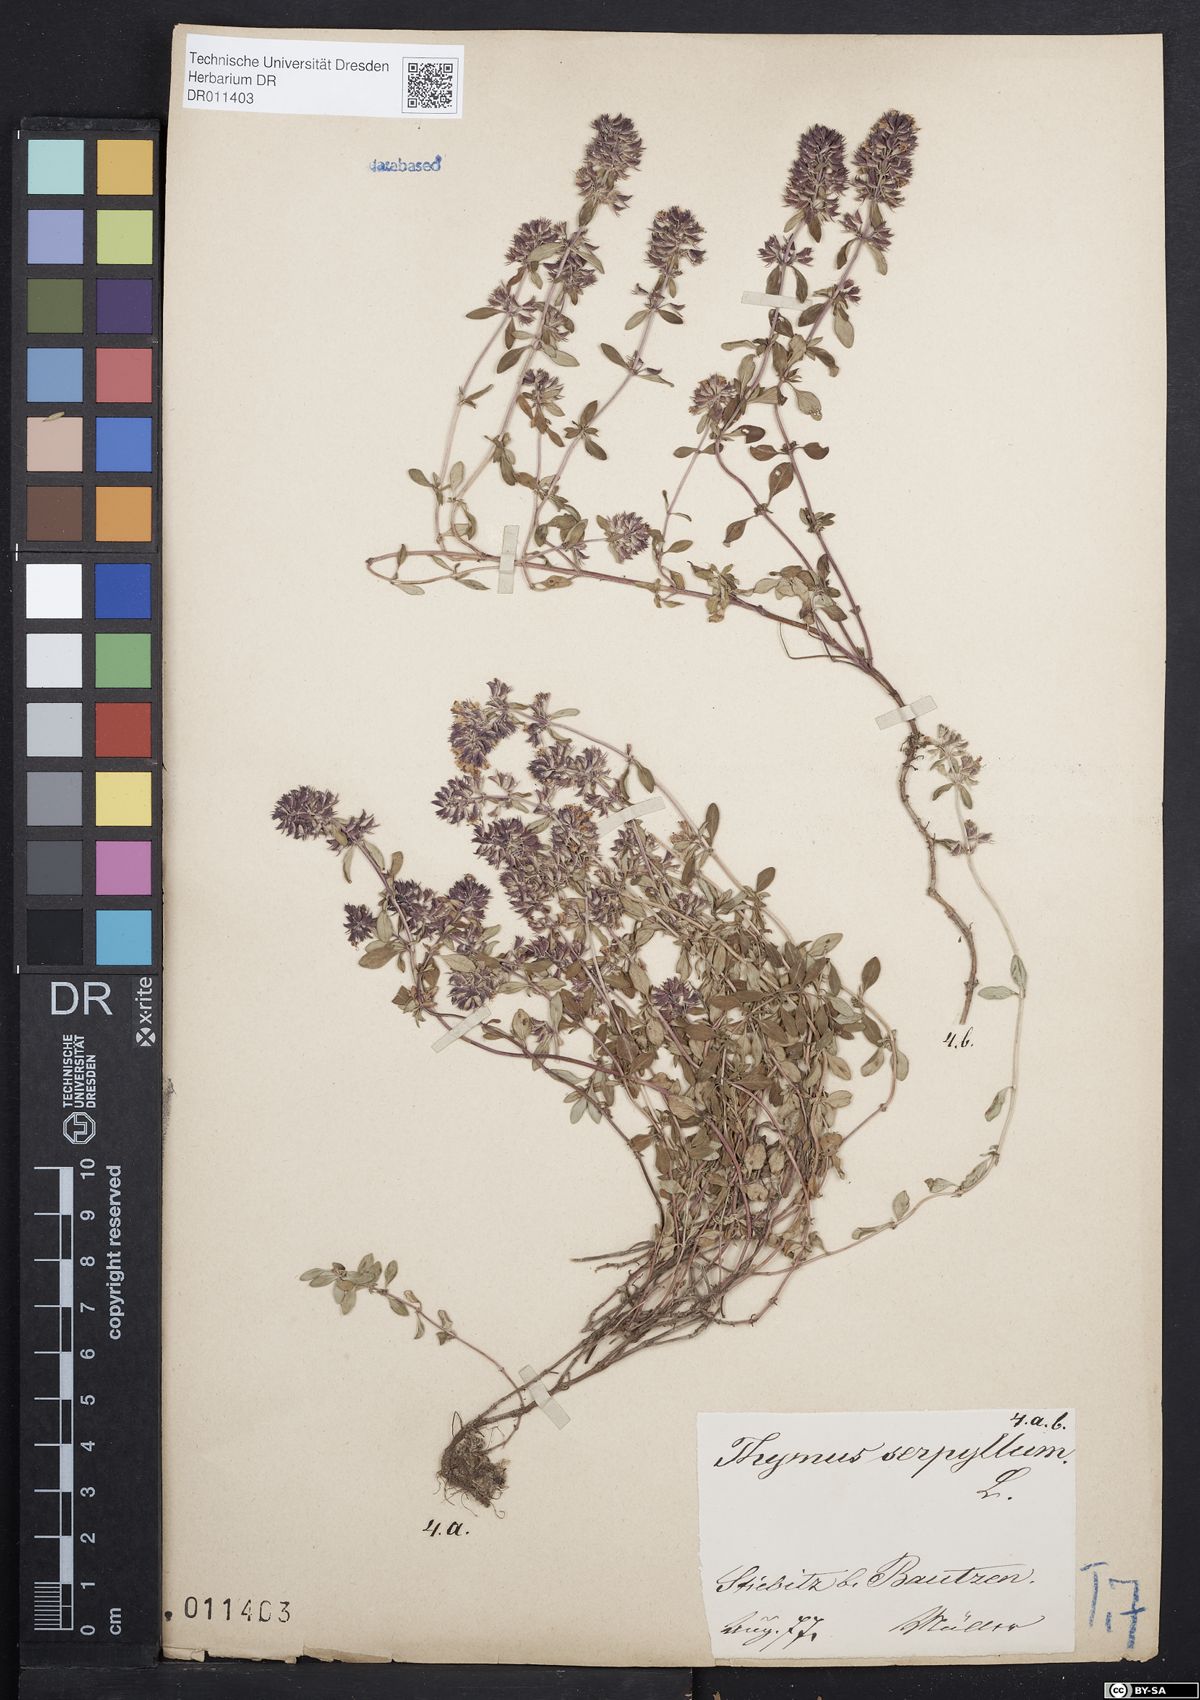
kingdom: Plantae
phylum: Tracheophyta
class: Magnoliopsida
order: Lamiales
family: Lamiaceae
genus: Thymus
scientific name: Thymus pulegioides
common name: Large thyme
